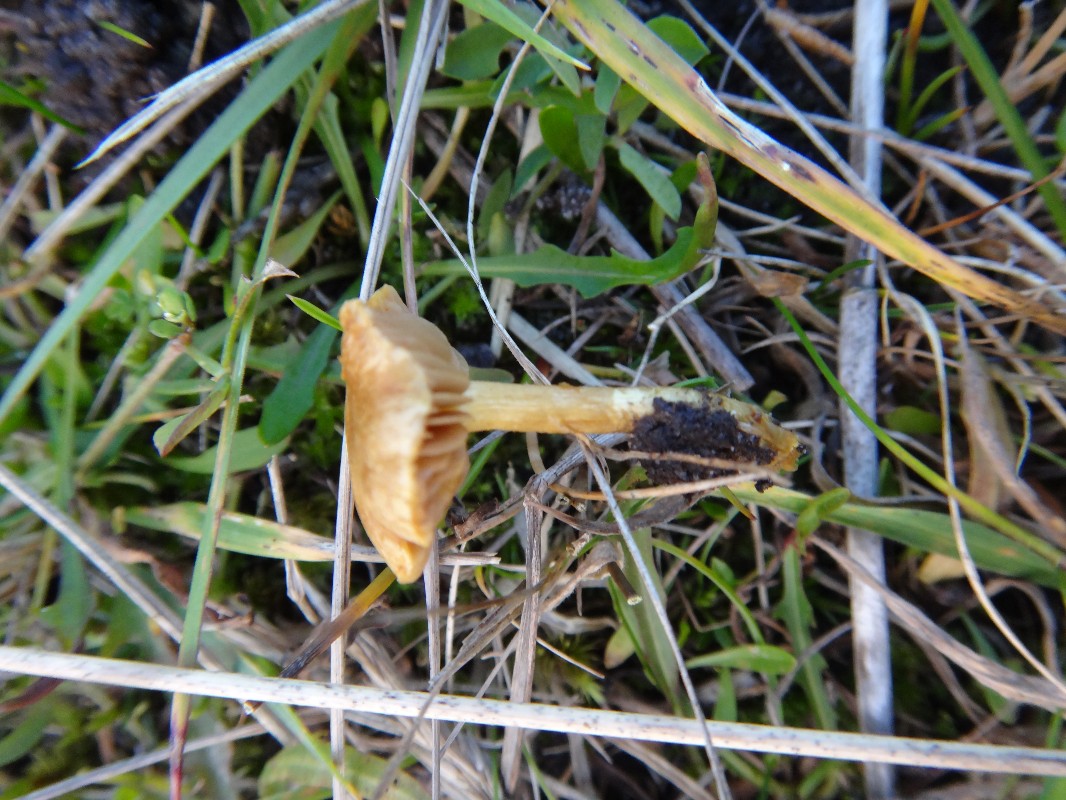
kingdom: Fungi
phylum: Basidiomycota
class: Agaricomycetes
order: Agaricales
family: Strophariaceae
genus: Pholiota
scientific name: Pholiota conissans
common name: pile-skælhat
